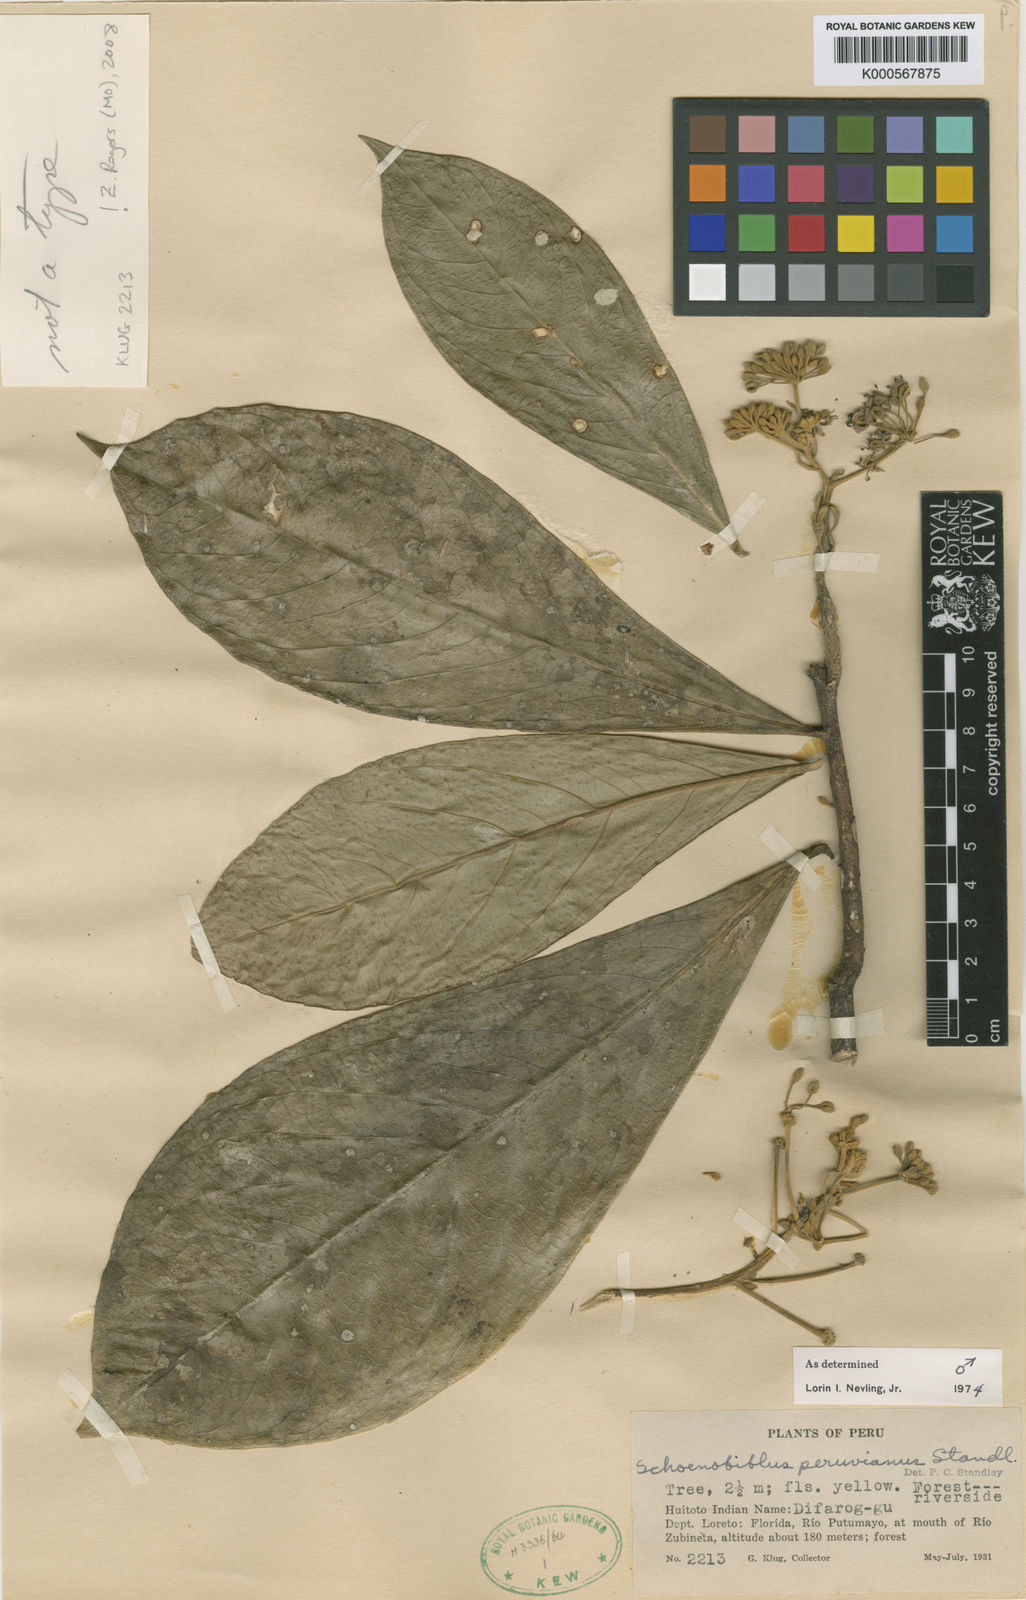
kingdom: Plantae
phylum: Tracheophyta
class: Magnoliopsida
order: Malvales
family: Thymelaeaceae
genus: Schoenobiblus
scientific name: Schoenobiblus peruviana
